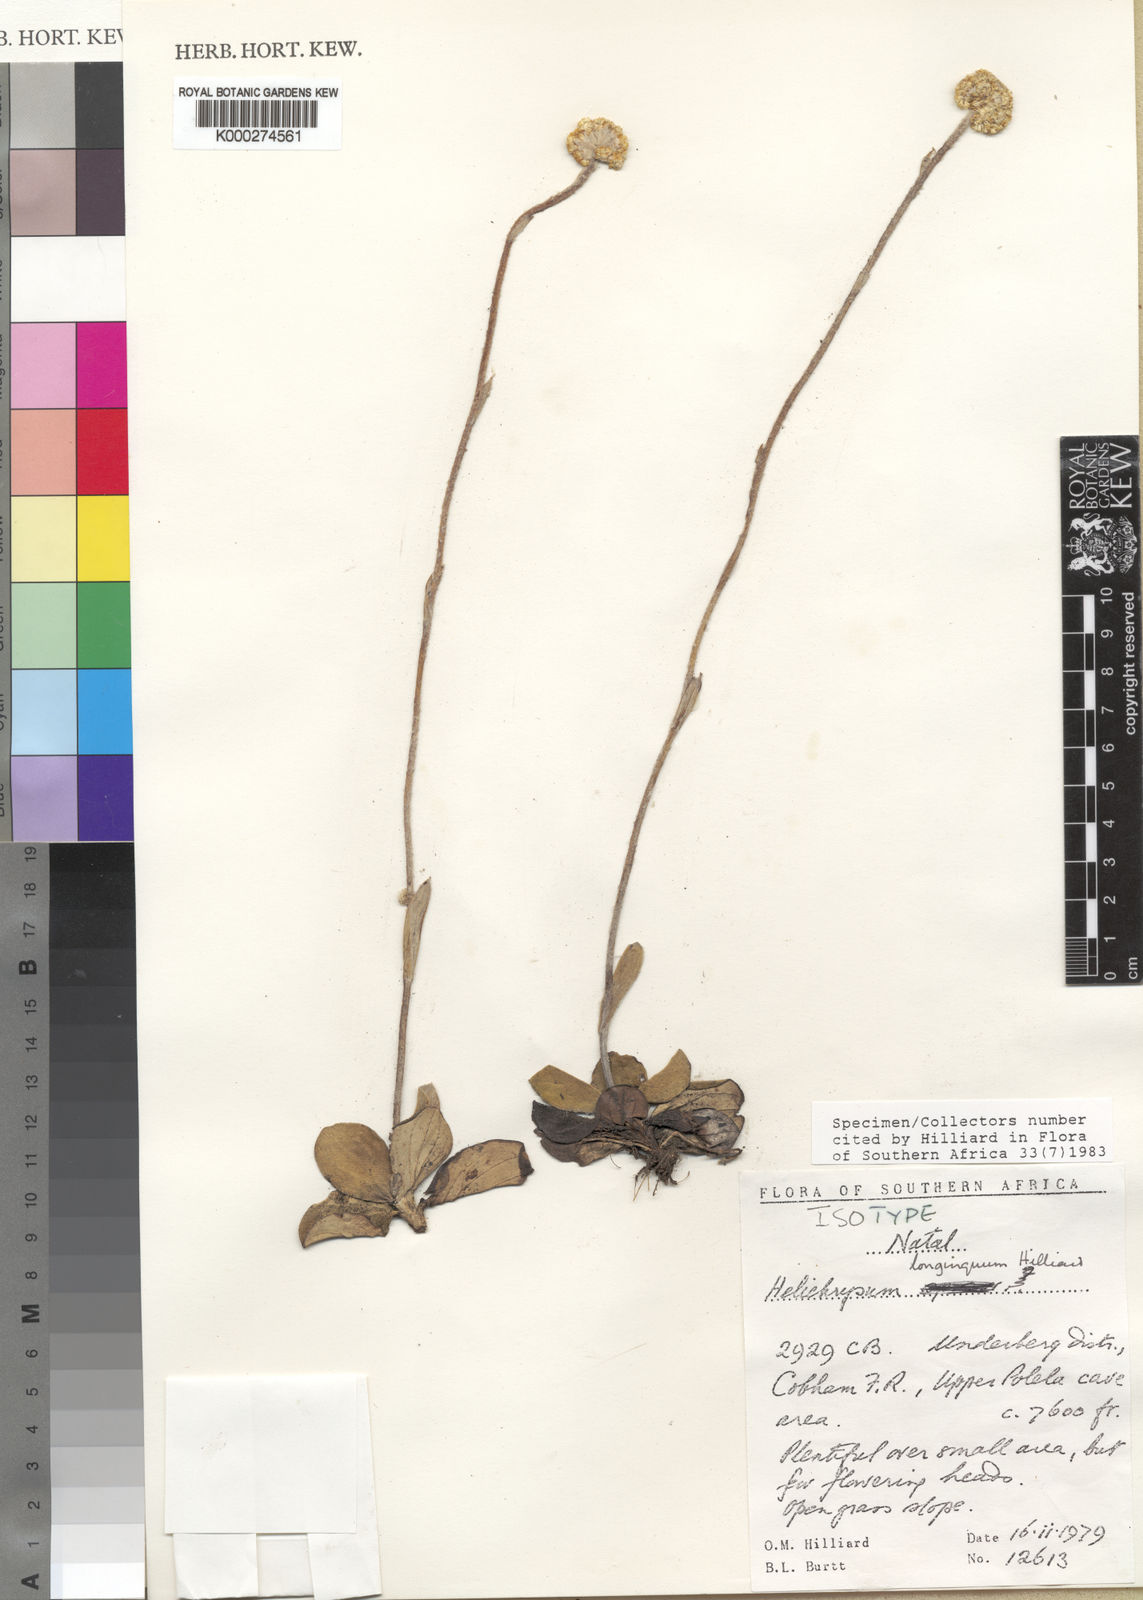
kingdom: Plantae
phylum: Tracheophyta
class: Magnoliopsida
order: Asterales
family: Asteraceae
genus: Helichrysum
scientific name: Helichrysum longinquum
